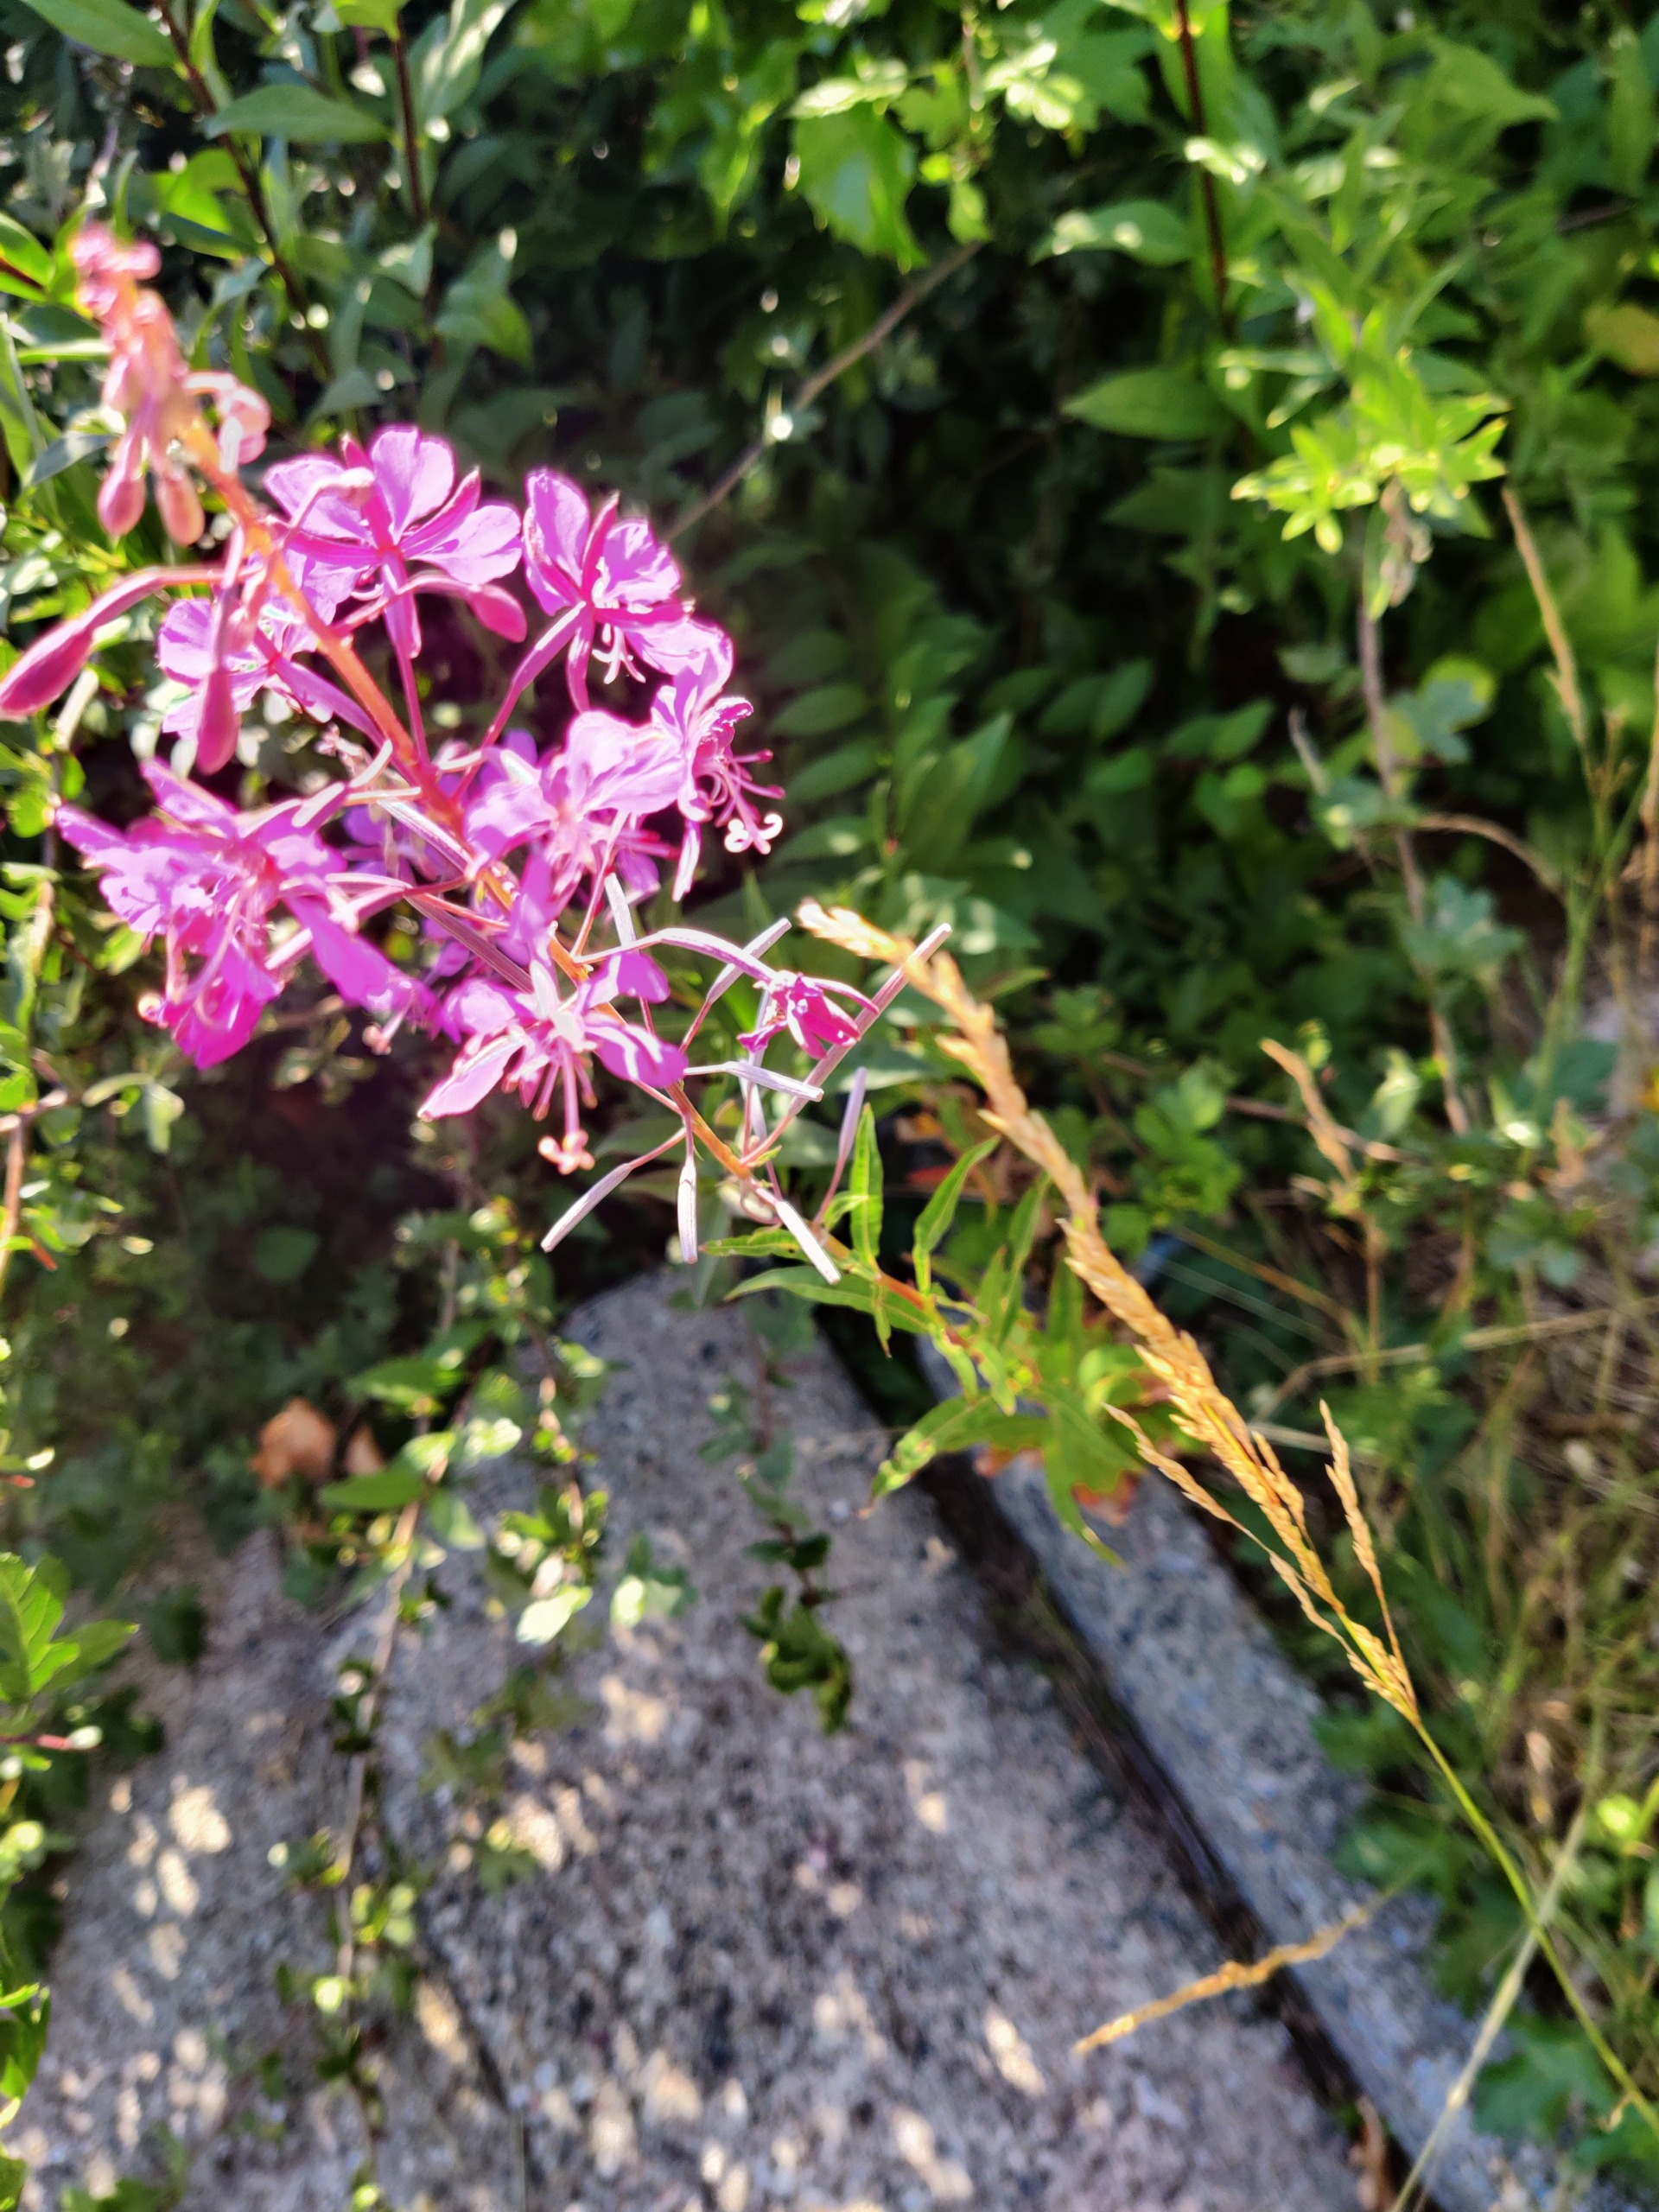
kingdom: Plantae
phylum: Tracheophyta
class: Magnoliopsida
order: Myrtales
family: Onagraceae
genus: Chamaenerion
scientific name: Chamaenerion angustifolium
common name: Gederams
